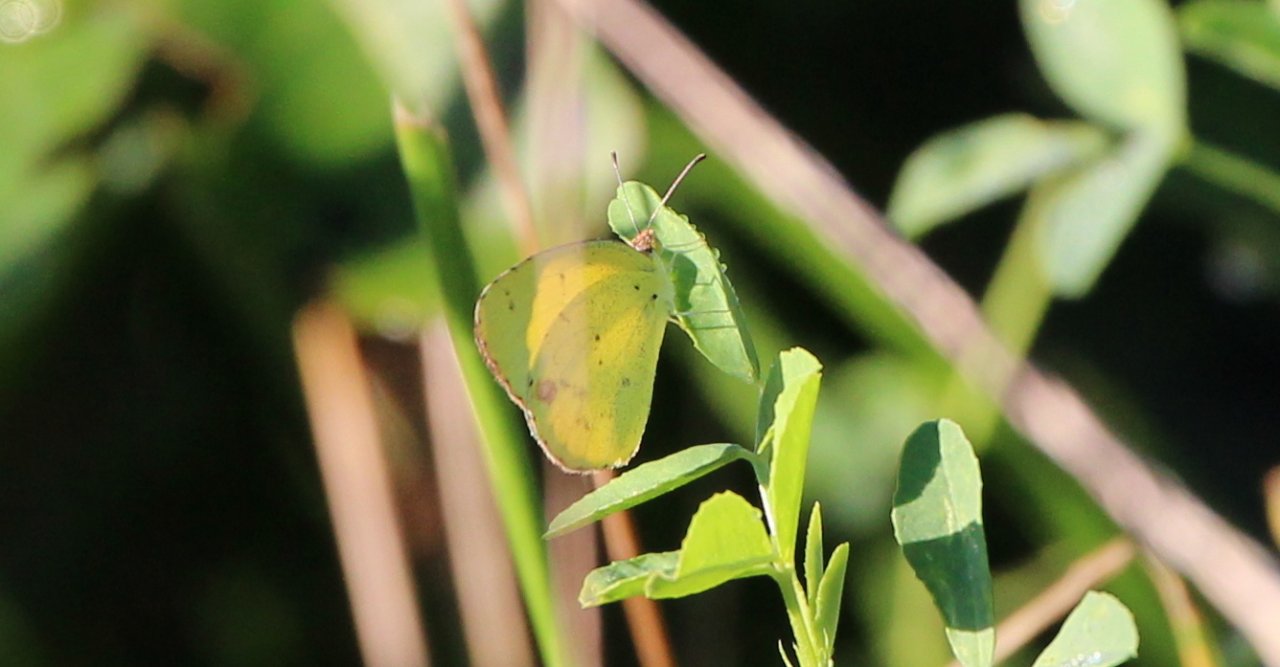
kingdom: Animalia
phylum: Arthropoda
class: Insecta
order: Lepidoptera
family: Pieridae
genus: Pyrisitia
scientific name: Pyrisitia lisa
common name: Little Yellow
